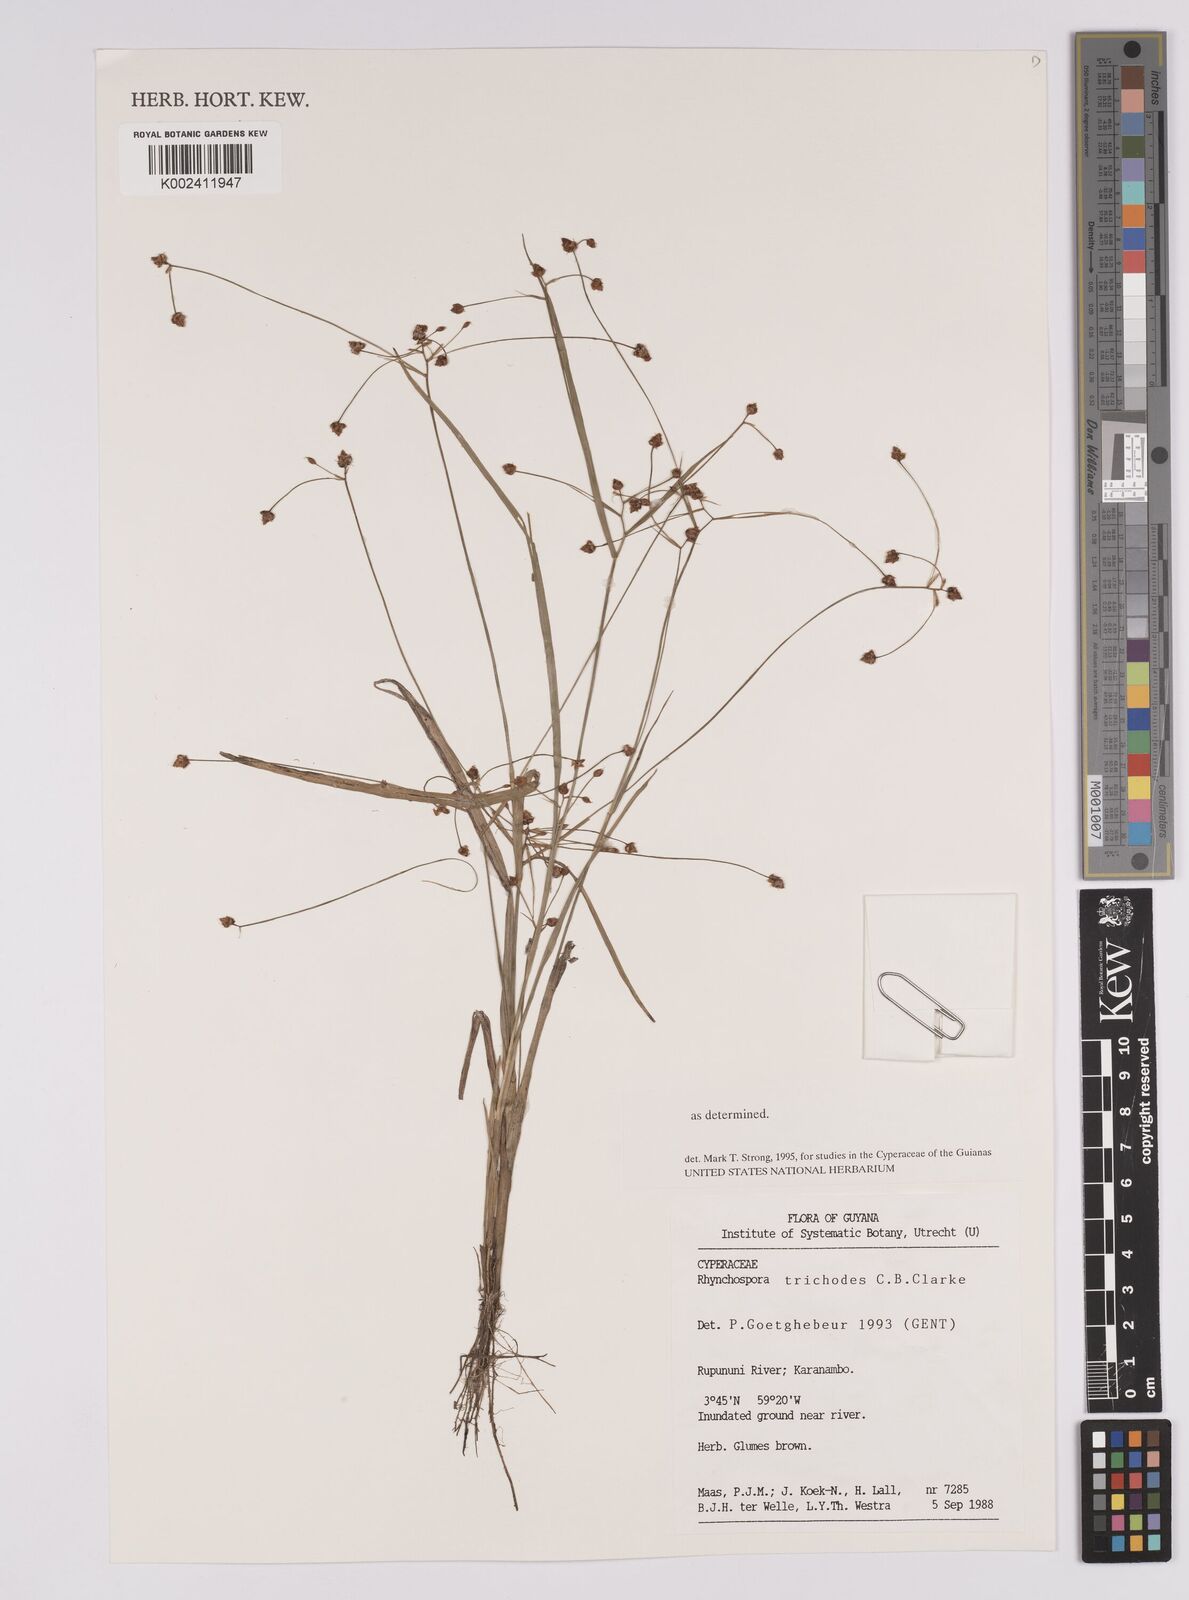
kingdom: Plantae
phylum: Tracheophyta
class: Liliopsida
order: Poales
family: Cyperaceae
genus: Rhynchospora
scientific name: Rhynchospora divaricata
